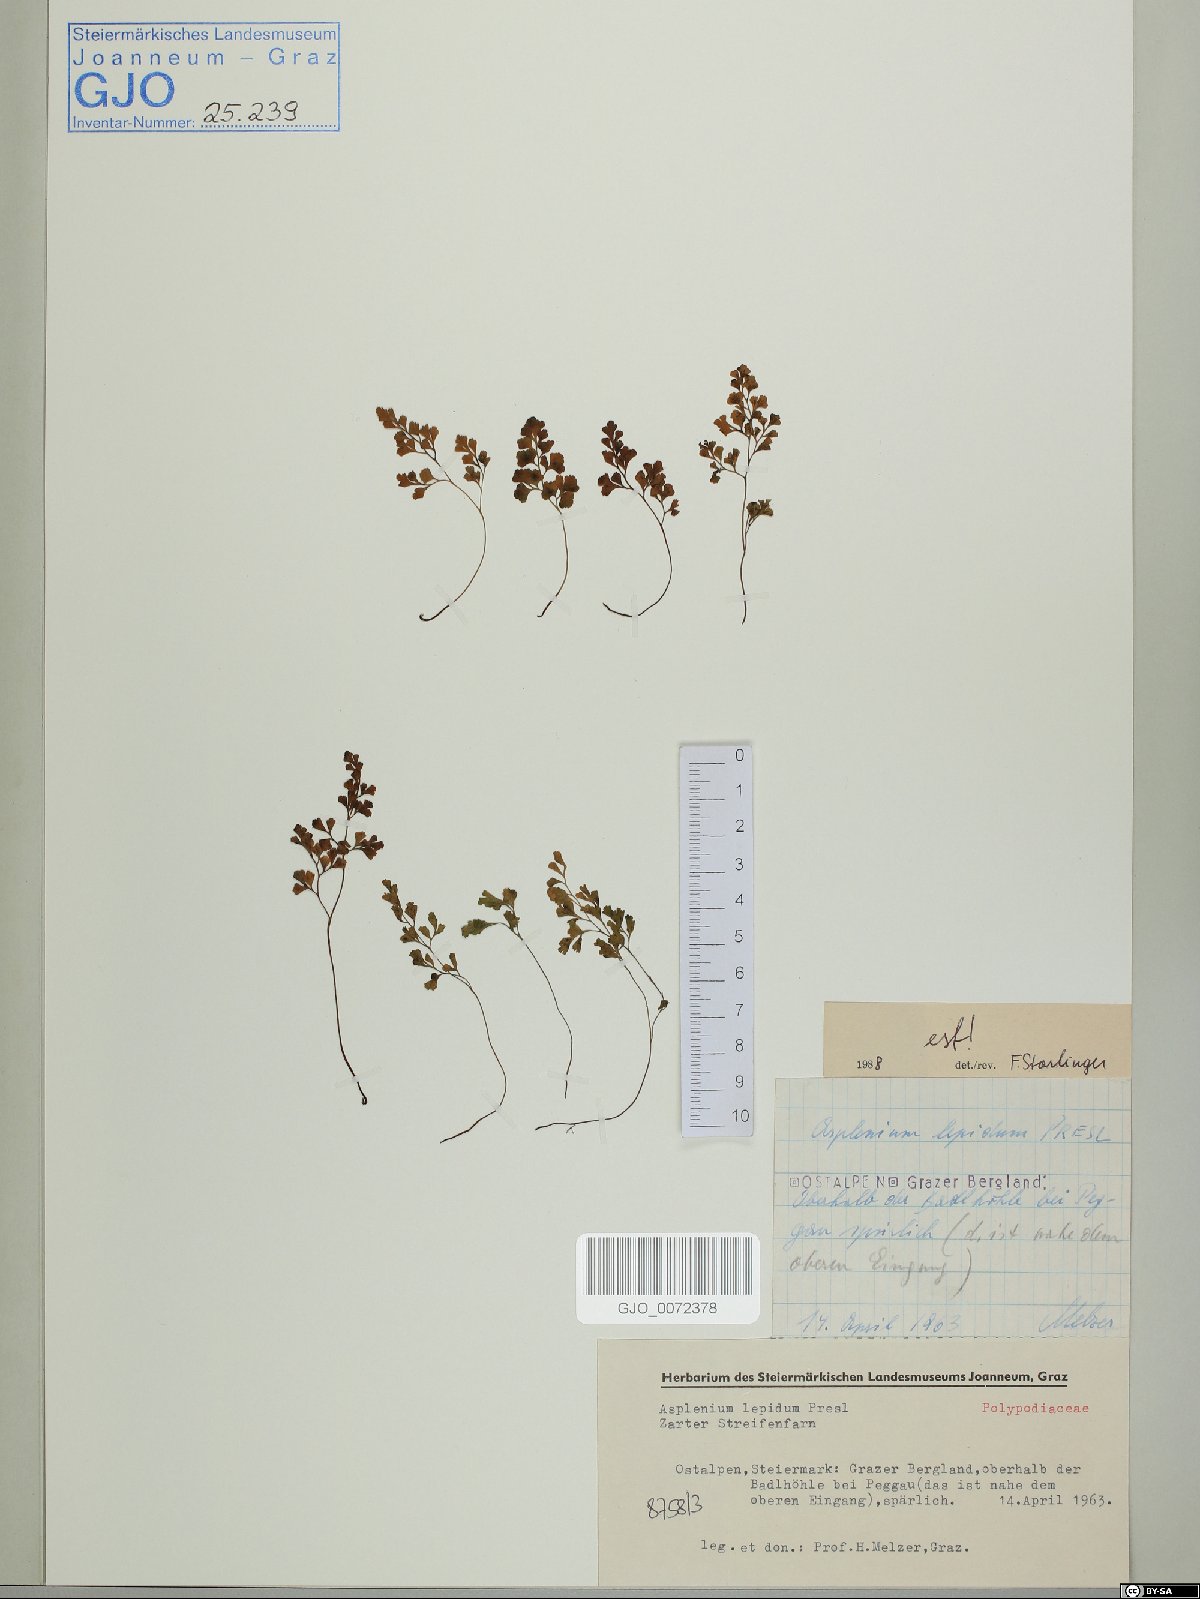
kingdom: Plantae
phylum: Tracheophyta
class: Polypodiopsida
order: Polypodiales
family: Aspleniaceae
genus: Asplenium
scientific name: Asplenium lepidum
